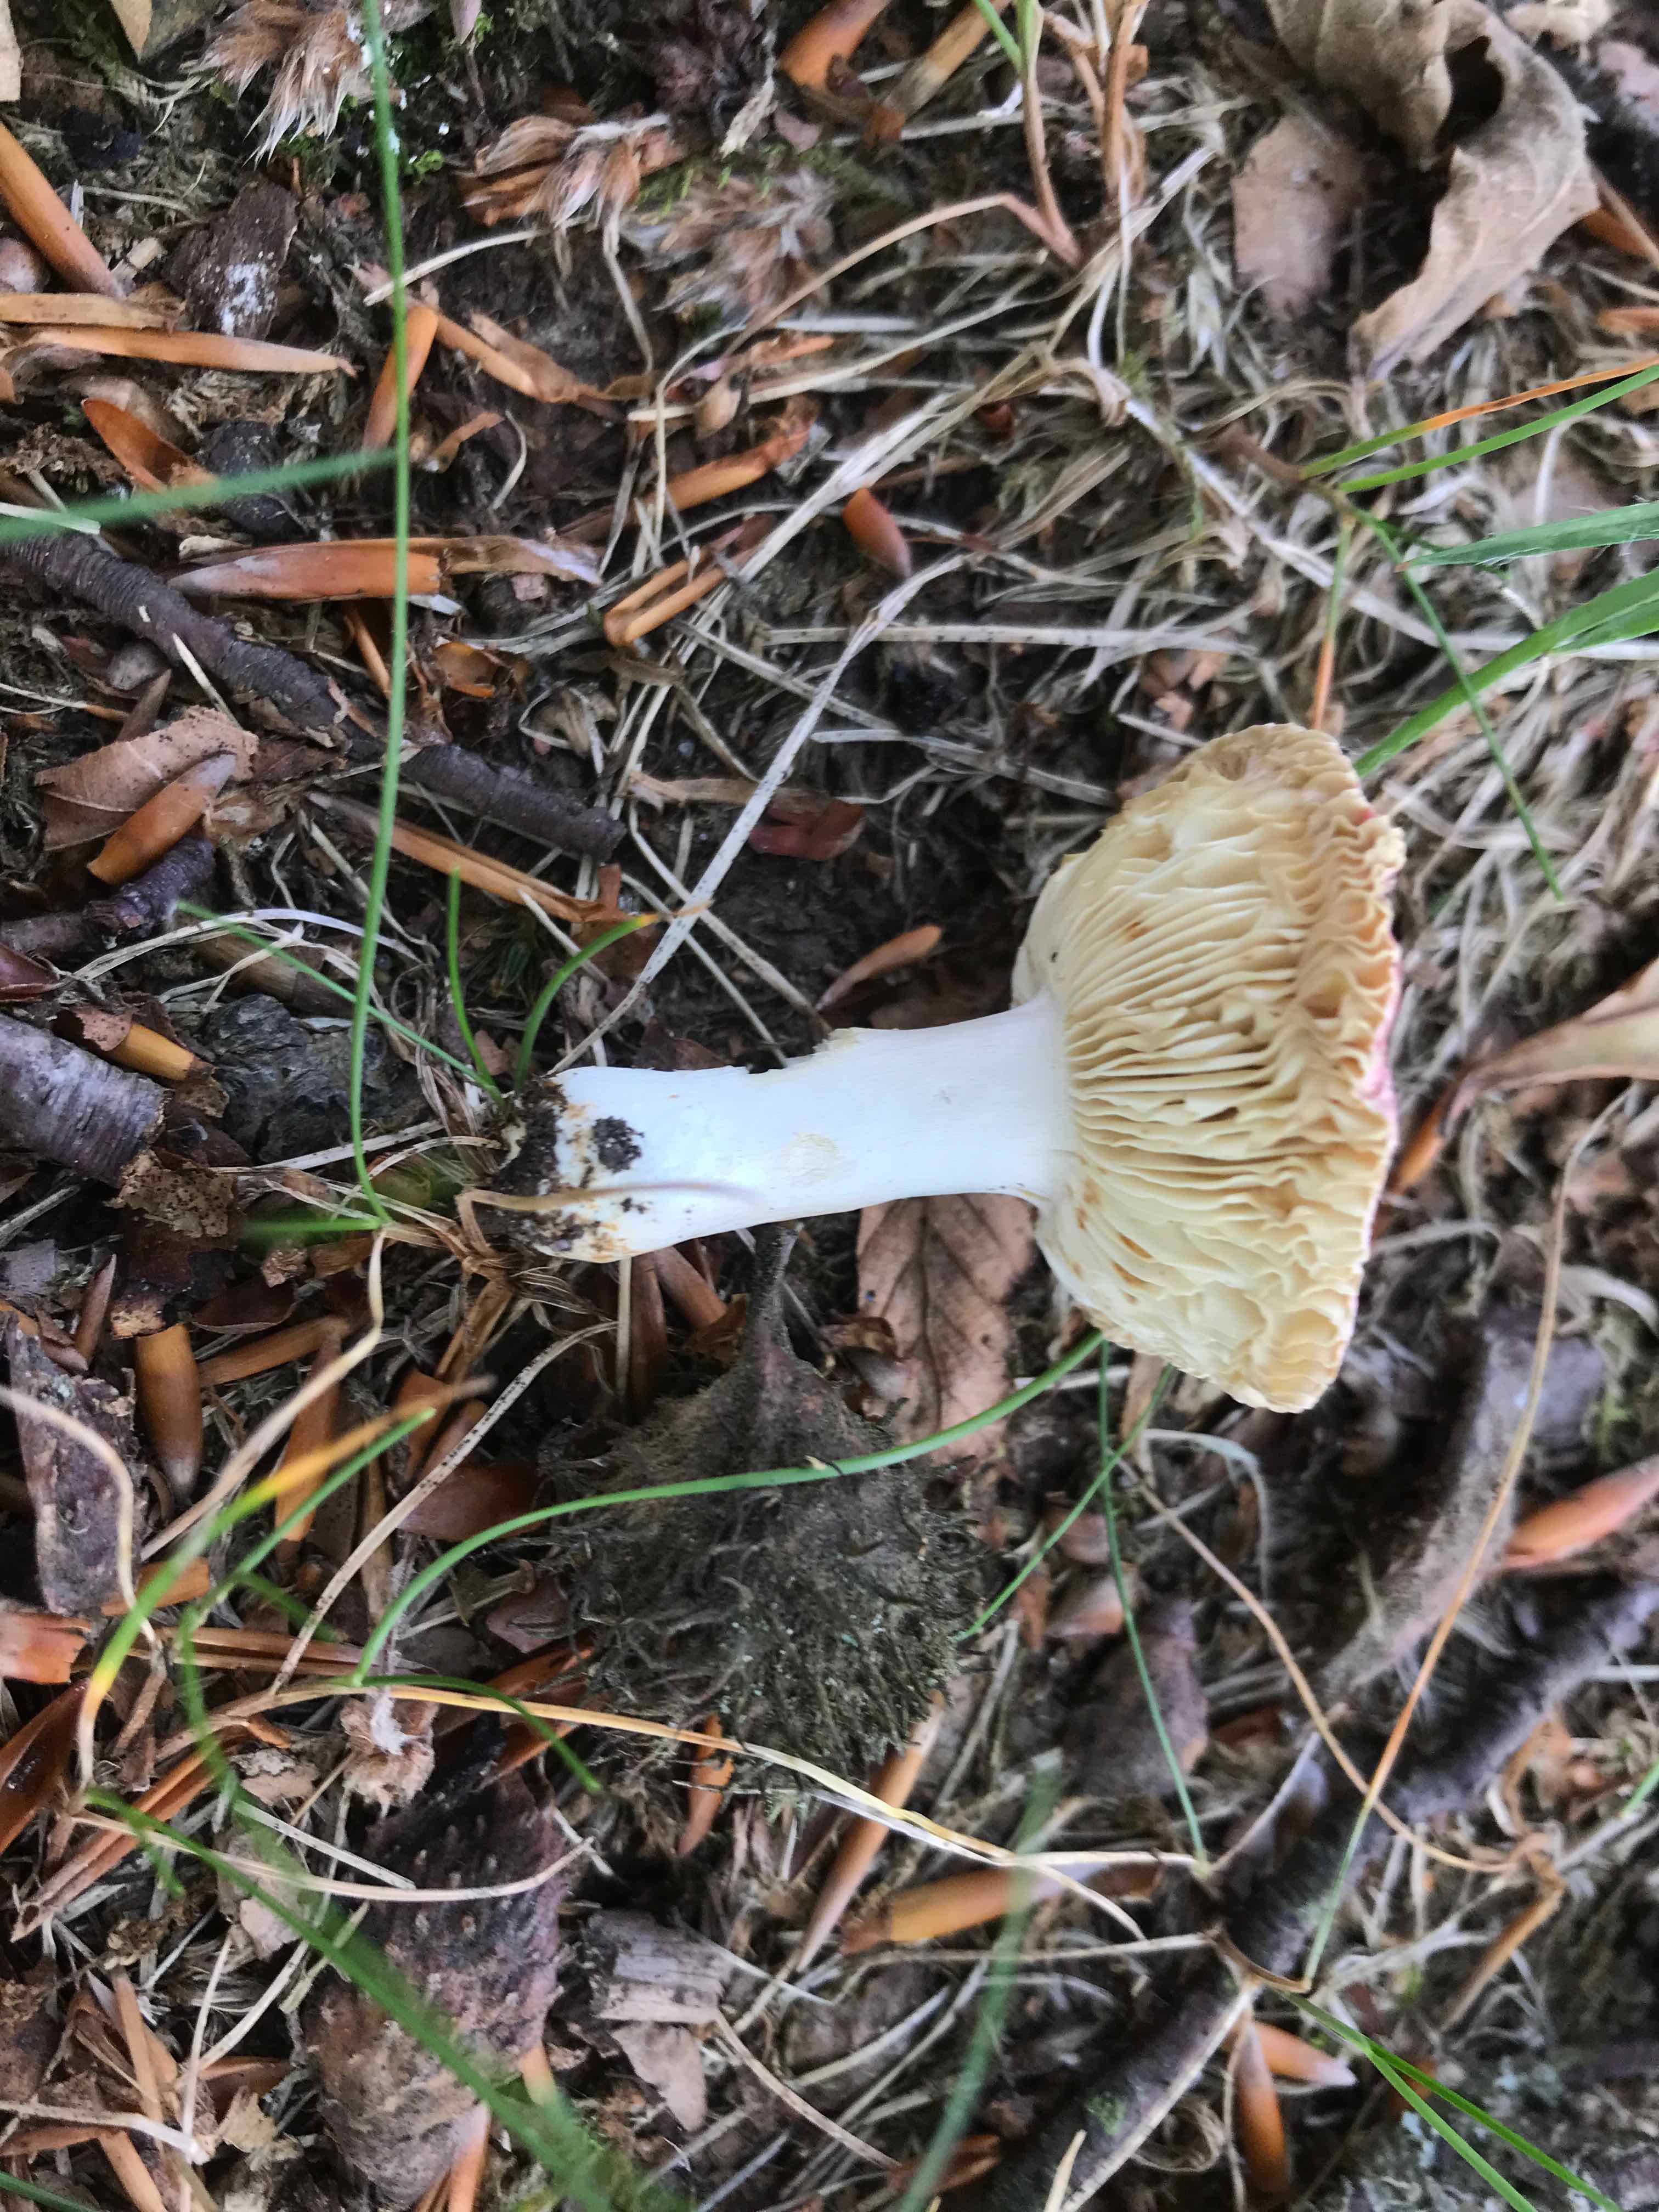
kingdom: Fungi
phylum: Basidiomycota
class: Agaricomycetes
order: Russulales
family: Russulaceae
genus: Russula
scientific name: Russula puellula
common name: gulnende skørhat
